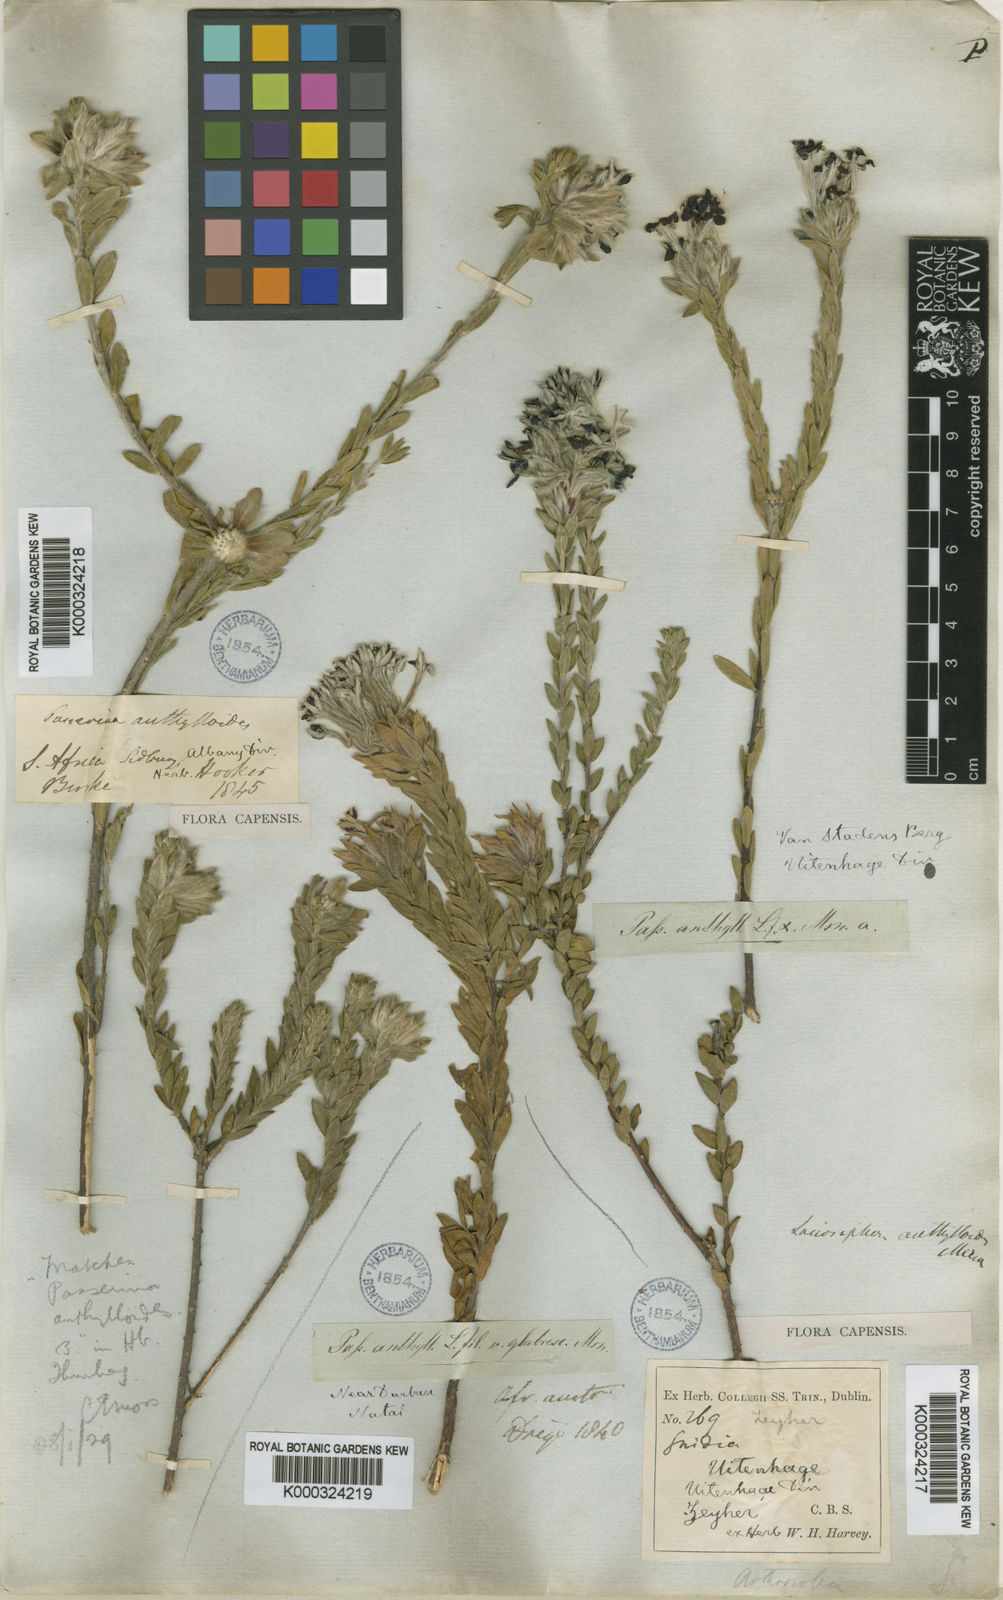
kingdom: Plantae
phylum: Tracheophyta
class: Magnoliopsida
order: Malvales
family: Thymelaeaceae
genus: Gnidia
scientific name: Gnidia anthylloides
